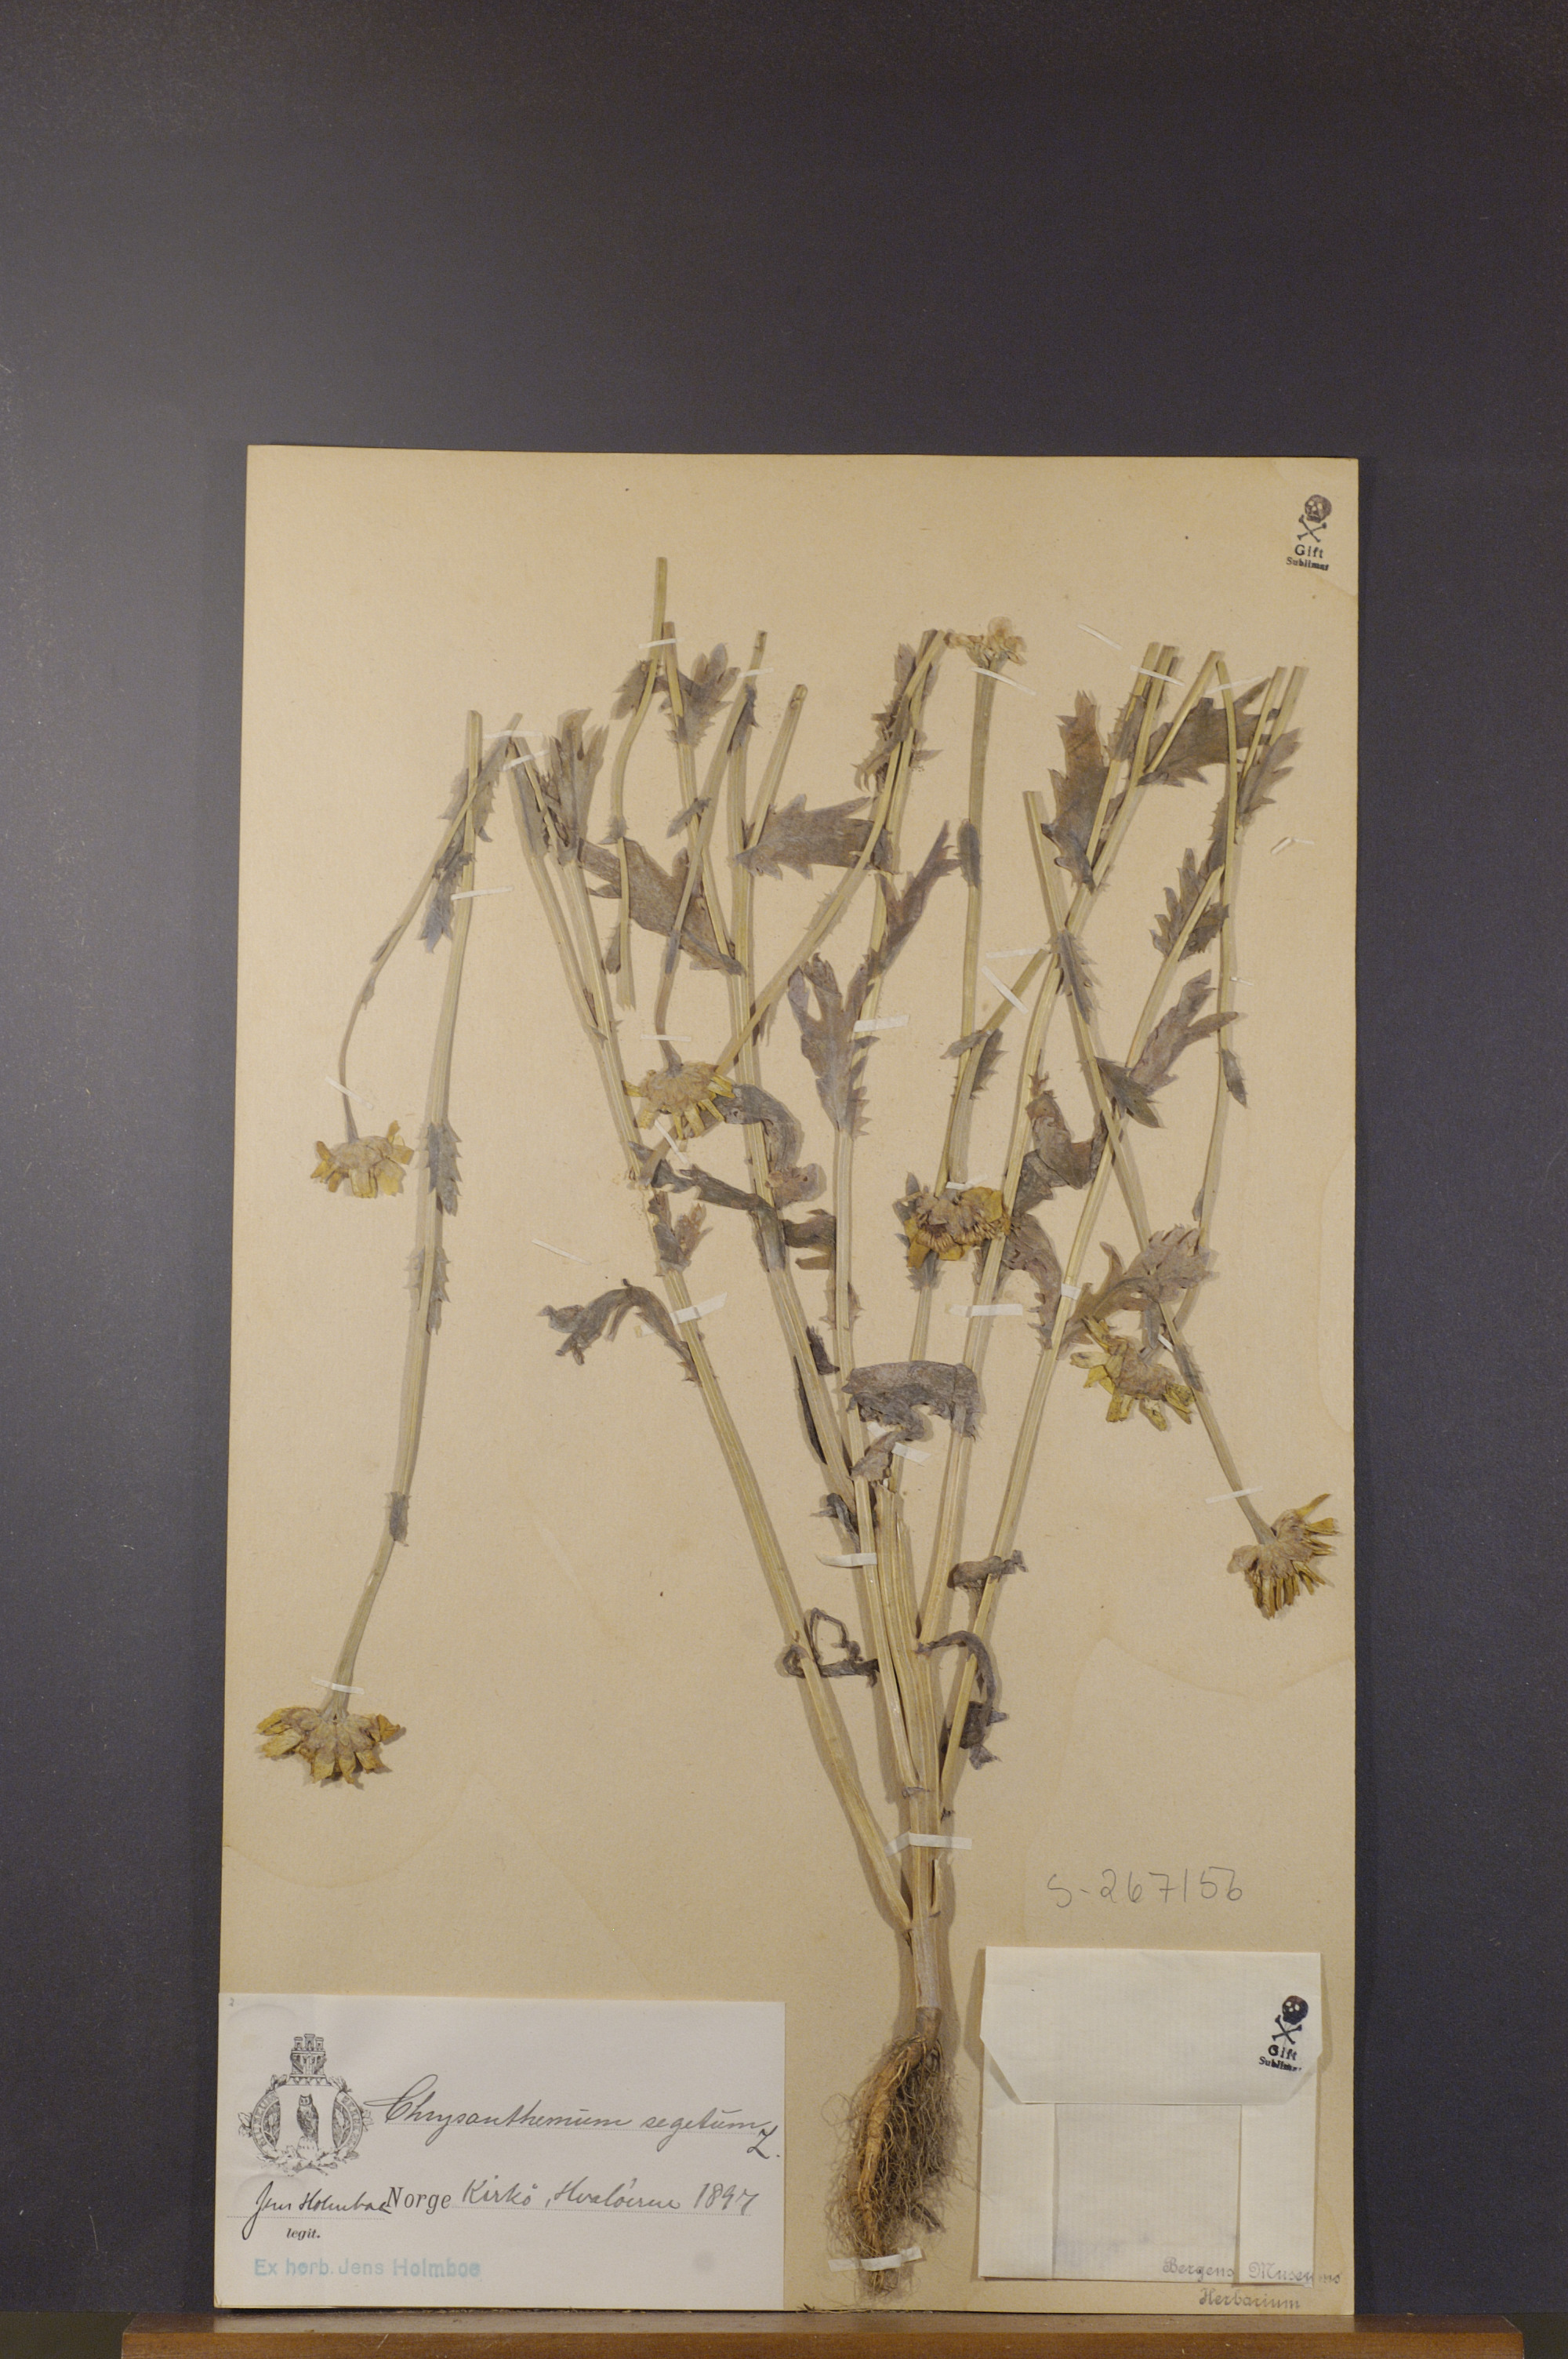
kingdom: Plantae
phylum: Tracheophyta
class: Magnoliopsida
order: Asterales
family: Asteraceae
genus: Glebionis
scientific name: Glebionis segetum
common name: Corndaisy
